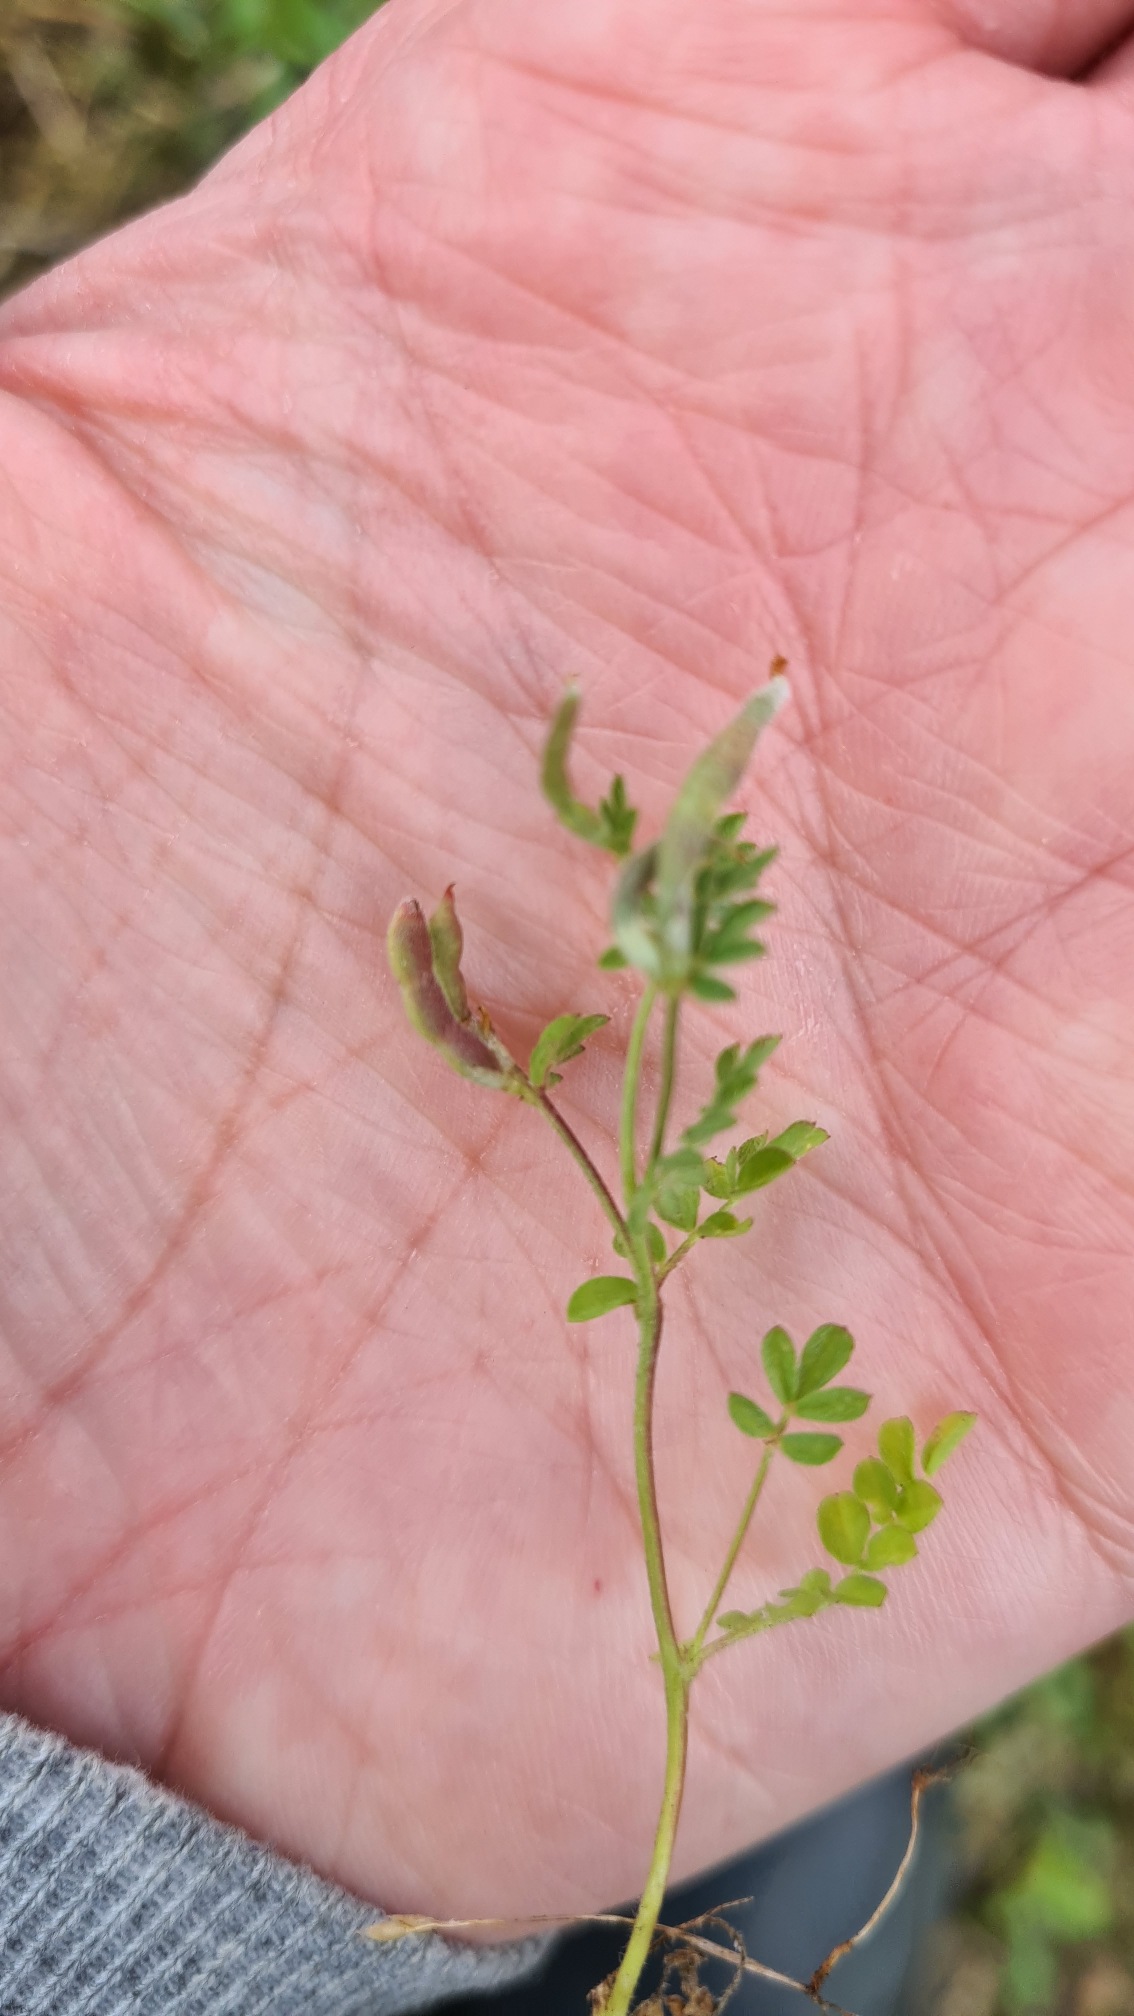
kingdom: Plantae
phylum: Tracheophyta
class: Magnoliopsida
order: Fabales
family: Fabaceae
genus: Ornithopus
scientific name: Ornithopus perpusillus
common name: Liden fugleklo
